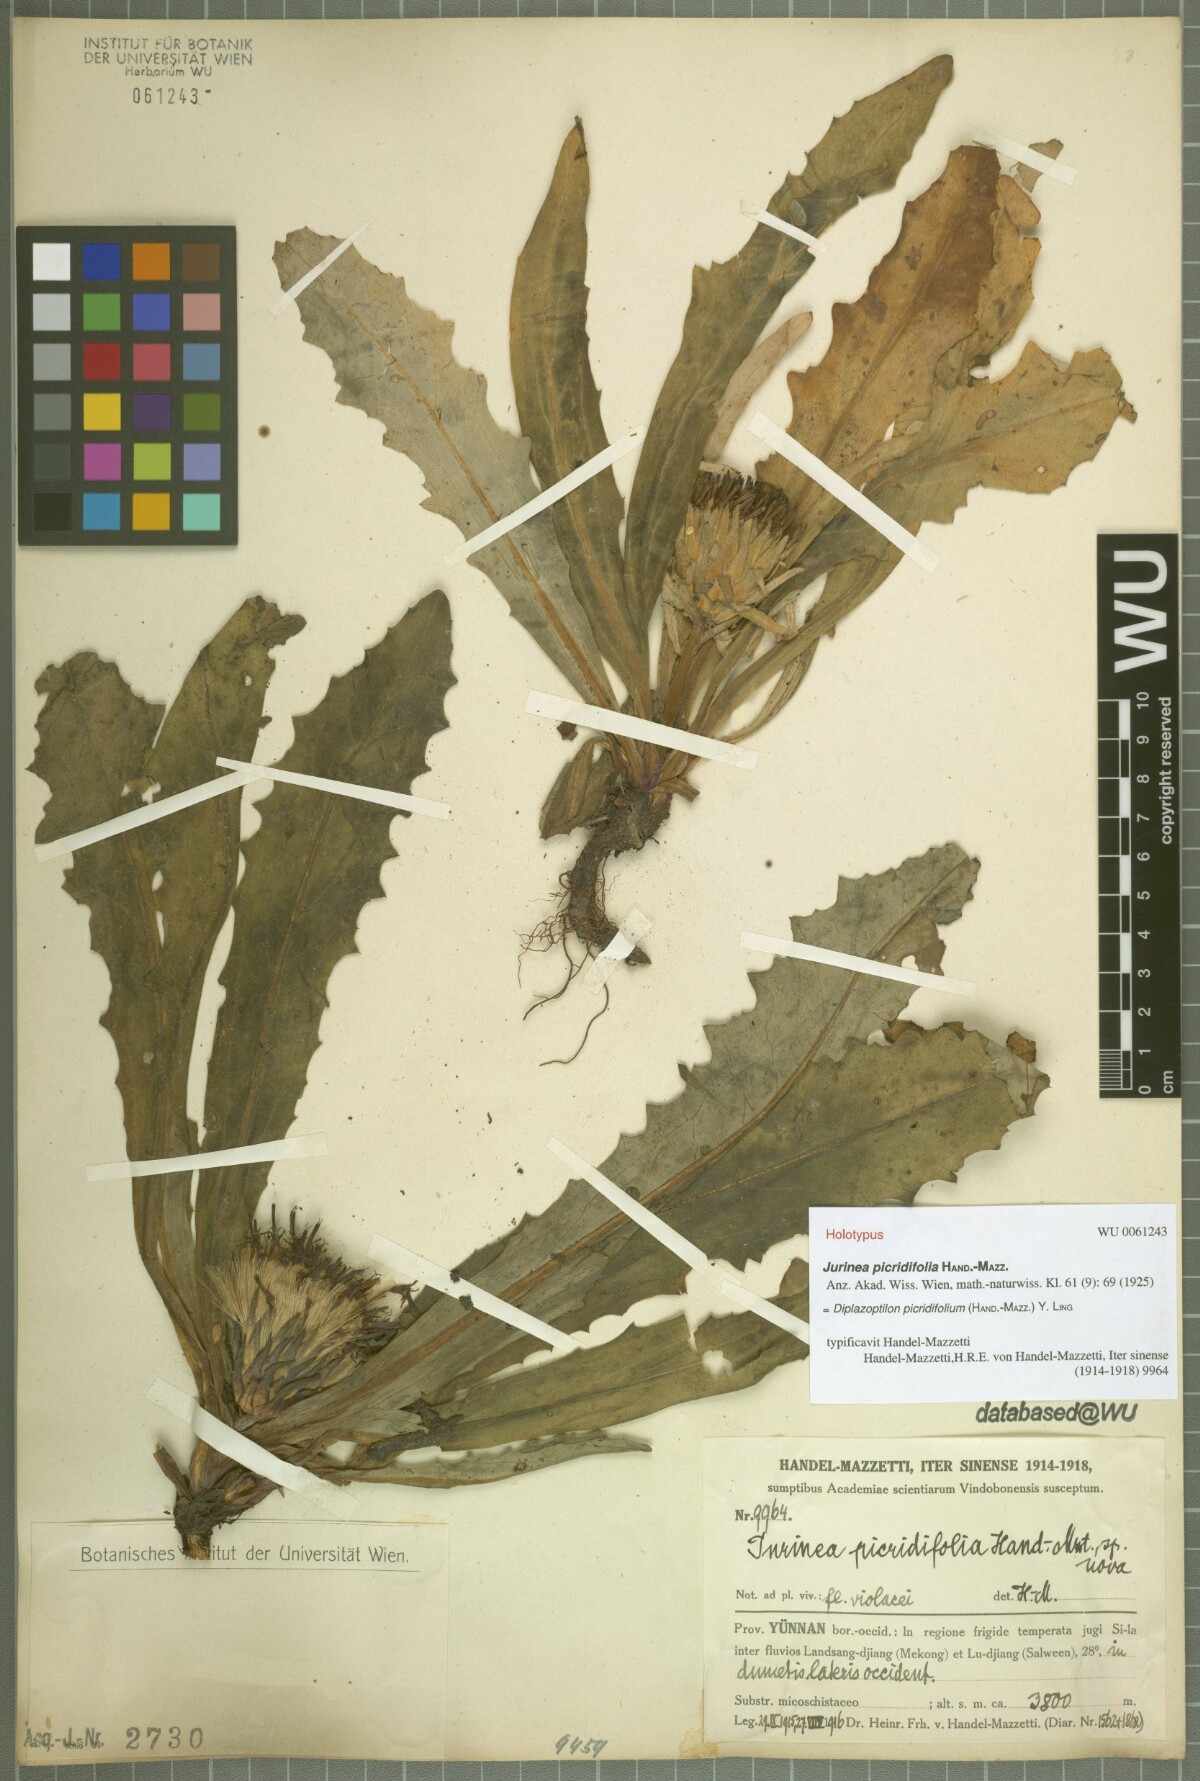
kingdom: Plantae
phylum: Tracheophyta
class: Magnoliopsida
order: Asterales
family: Asteraceae
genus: Saussurea
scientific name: Saussurea picridifolia
